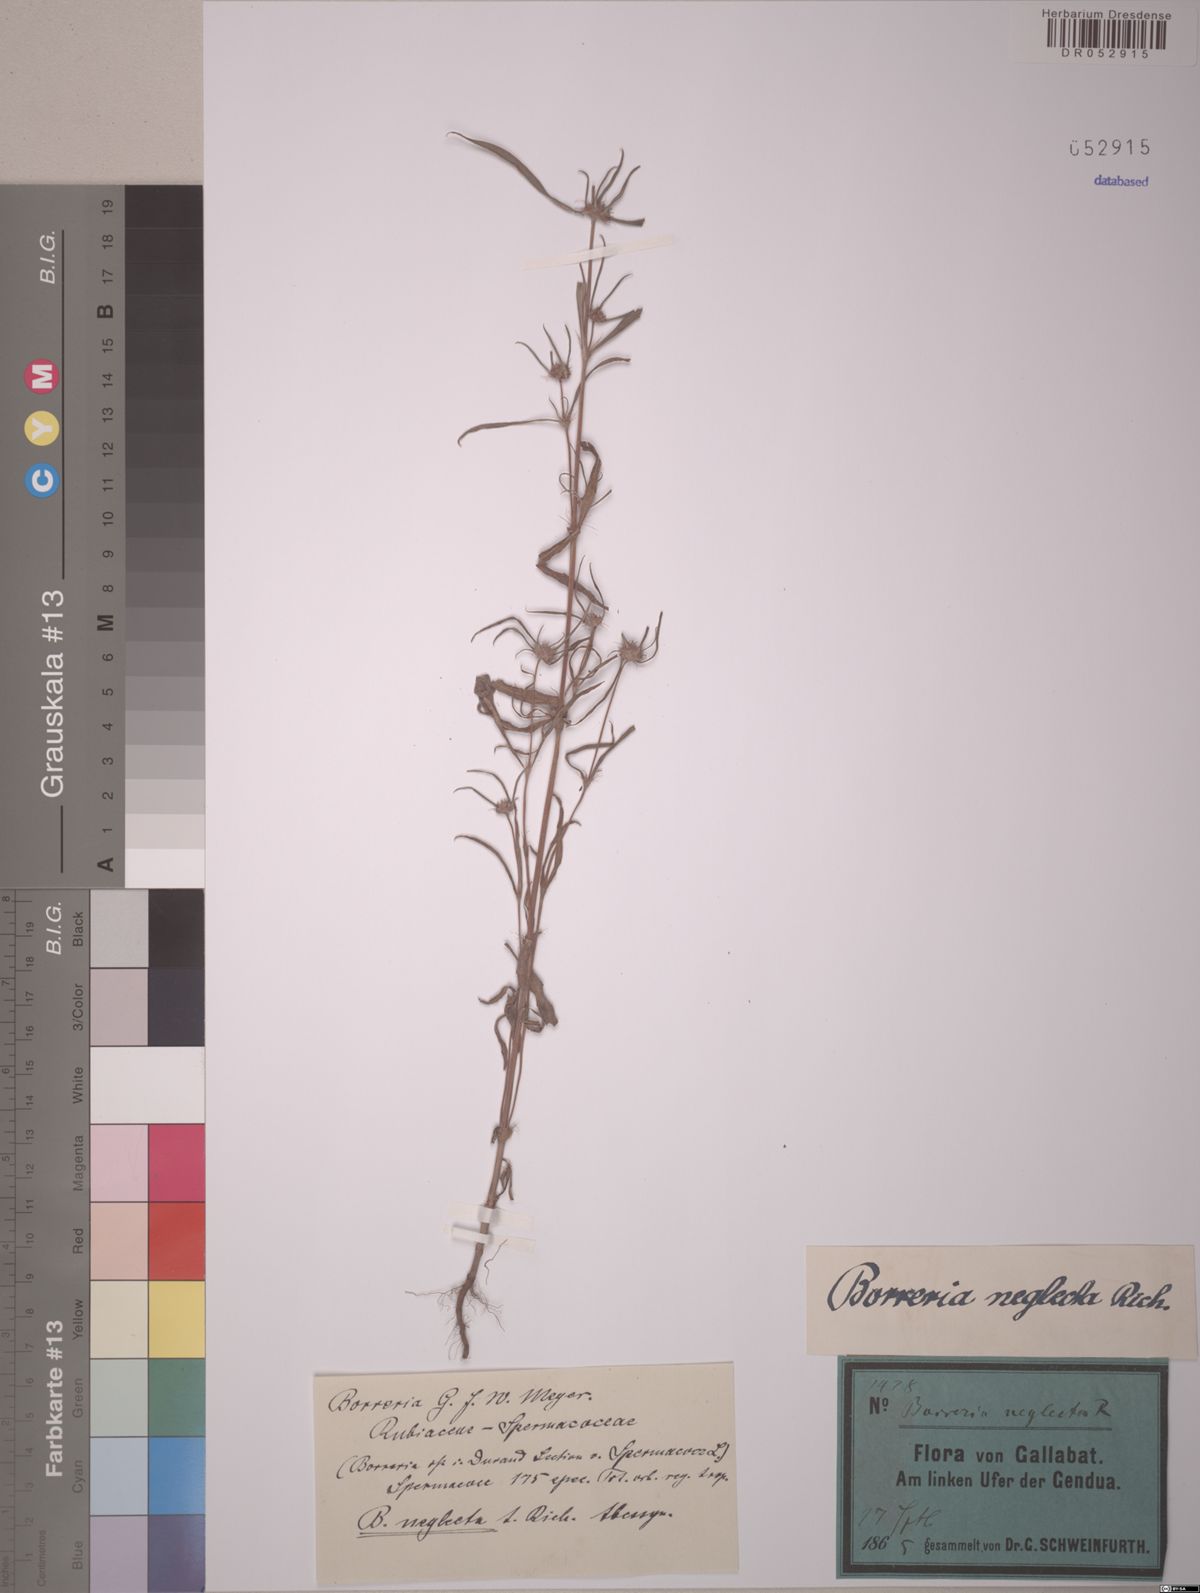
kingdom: Plantae
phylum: Tracheophyta
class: Magnoliopsida
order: Gentianales
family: Rubiaceae
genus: Spermacoce
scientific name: Spermacoce chaetocephala
